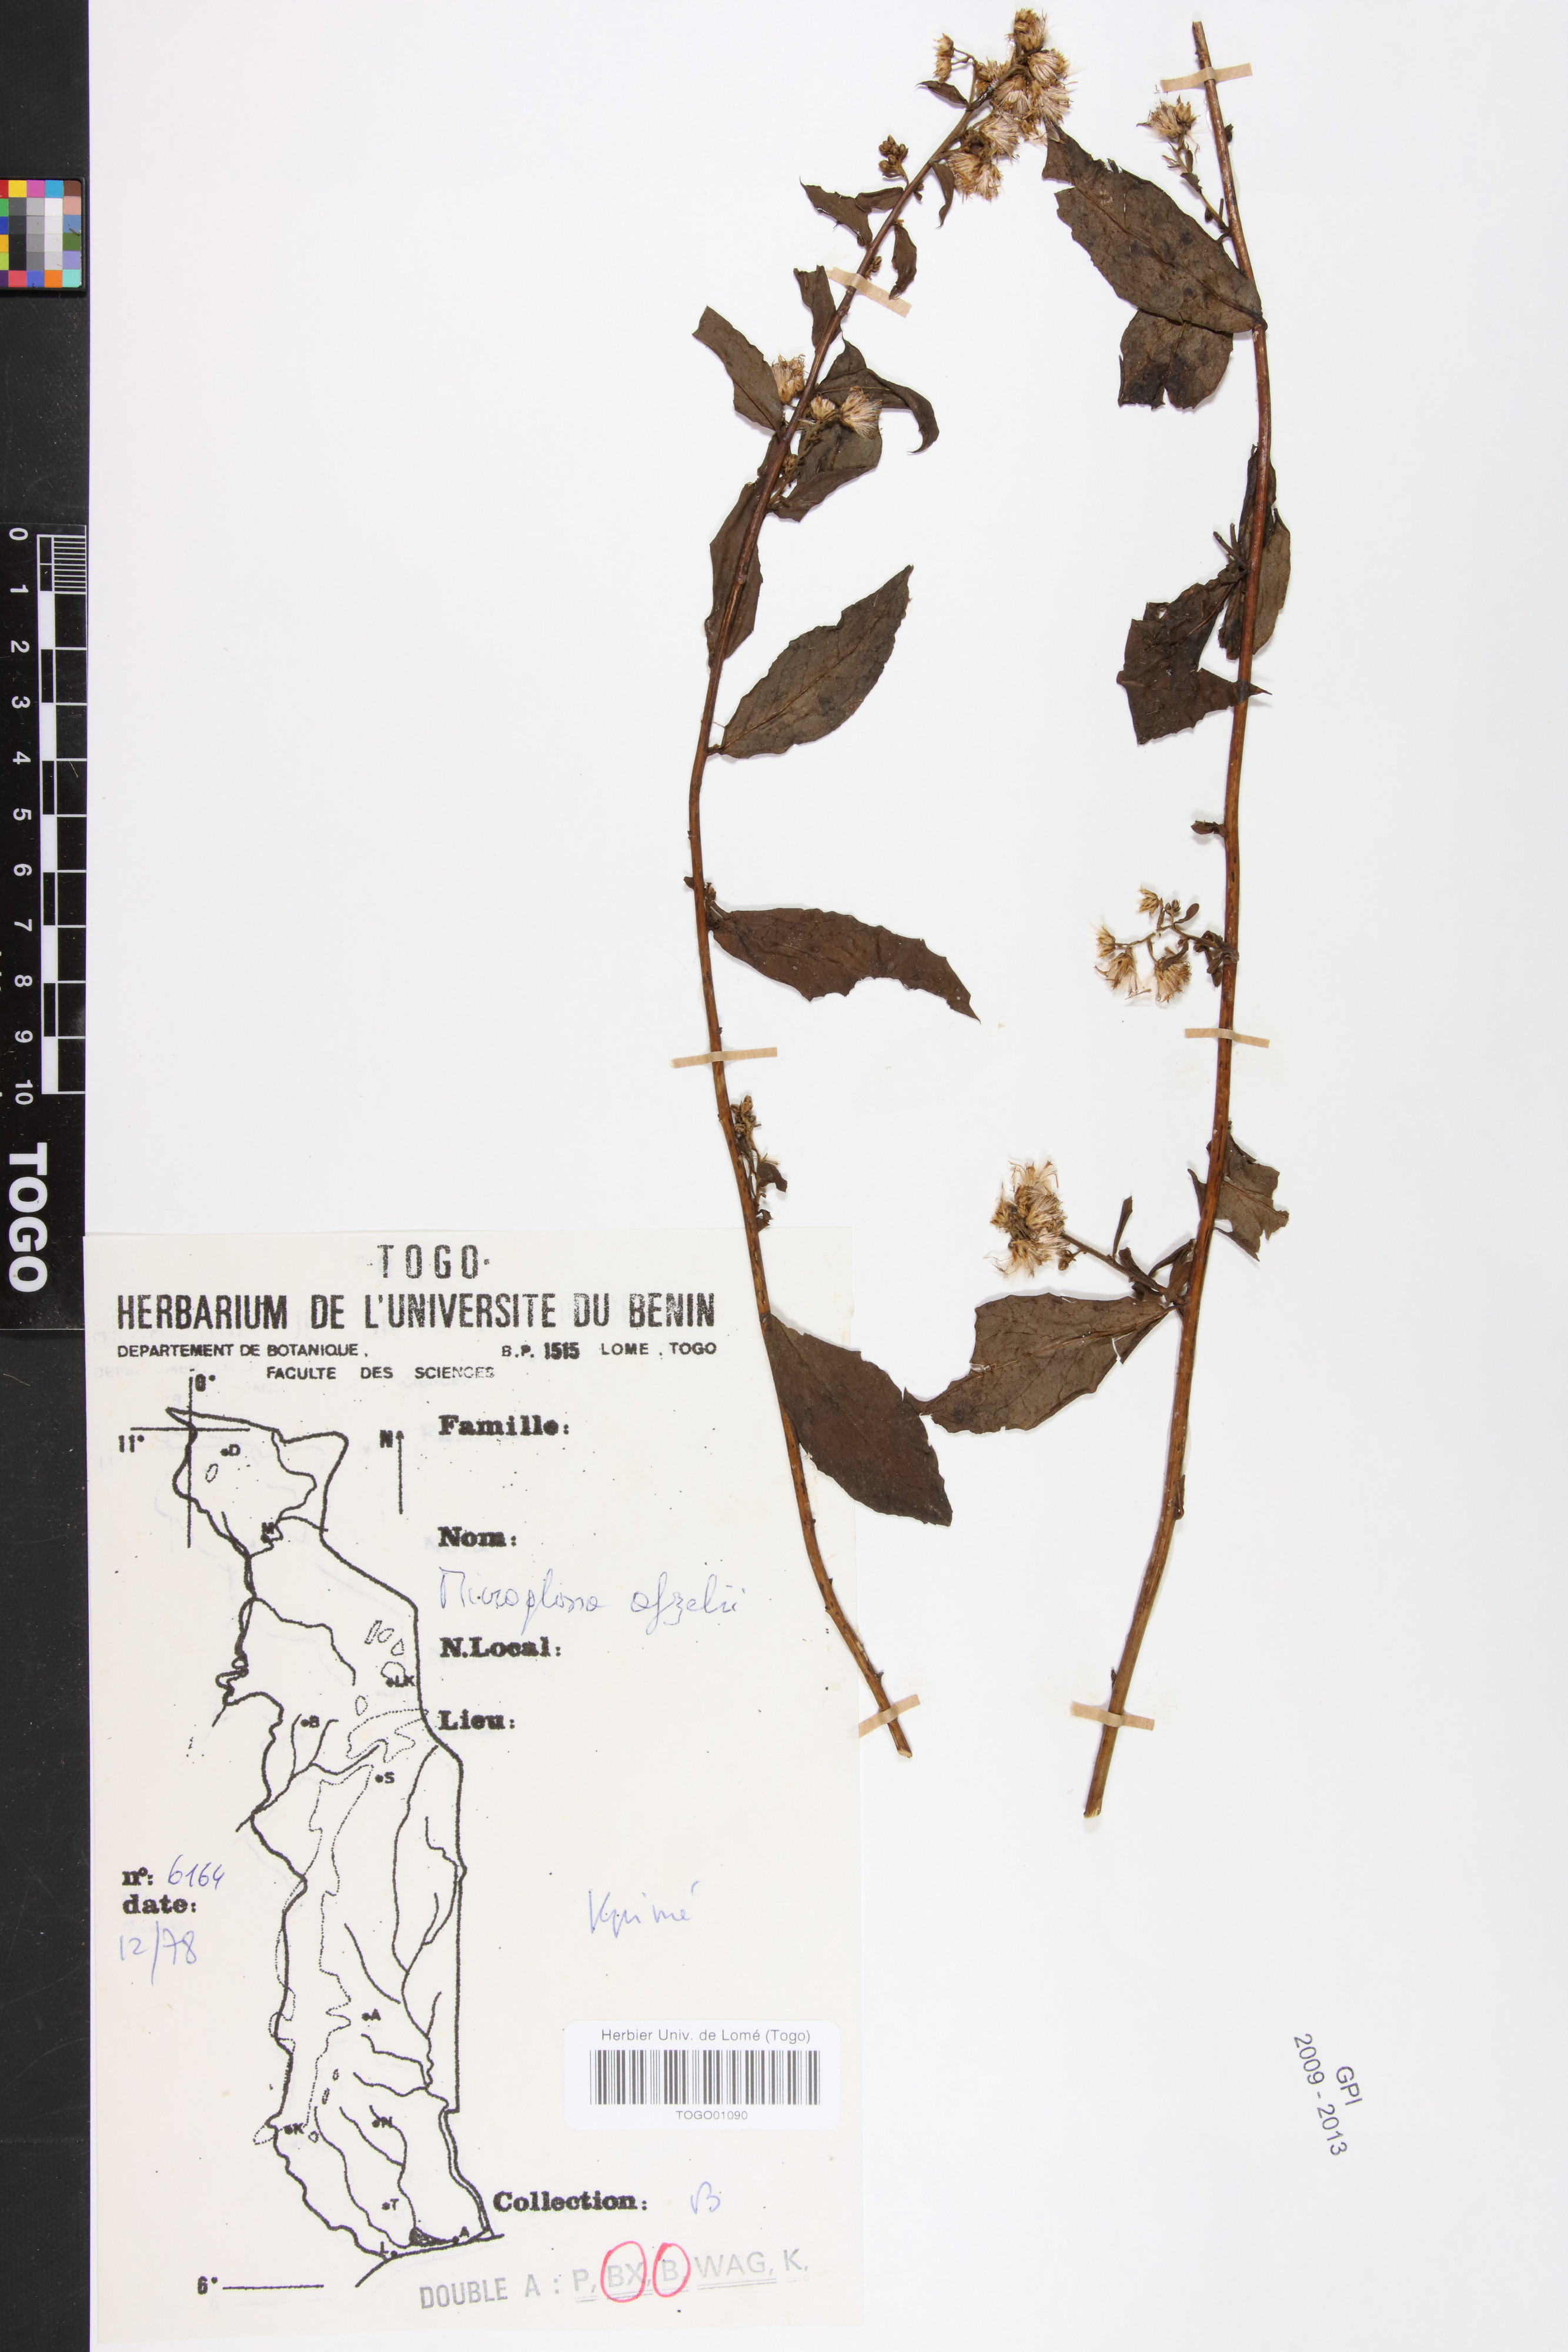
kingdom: Plantae
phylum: Tracheophyta
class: Magnoliopsida
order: Asterales
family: Asteraceae
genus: Microglossa
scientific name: Microglossa afzelii
